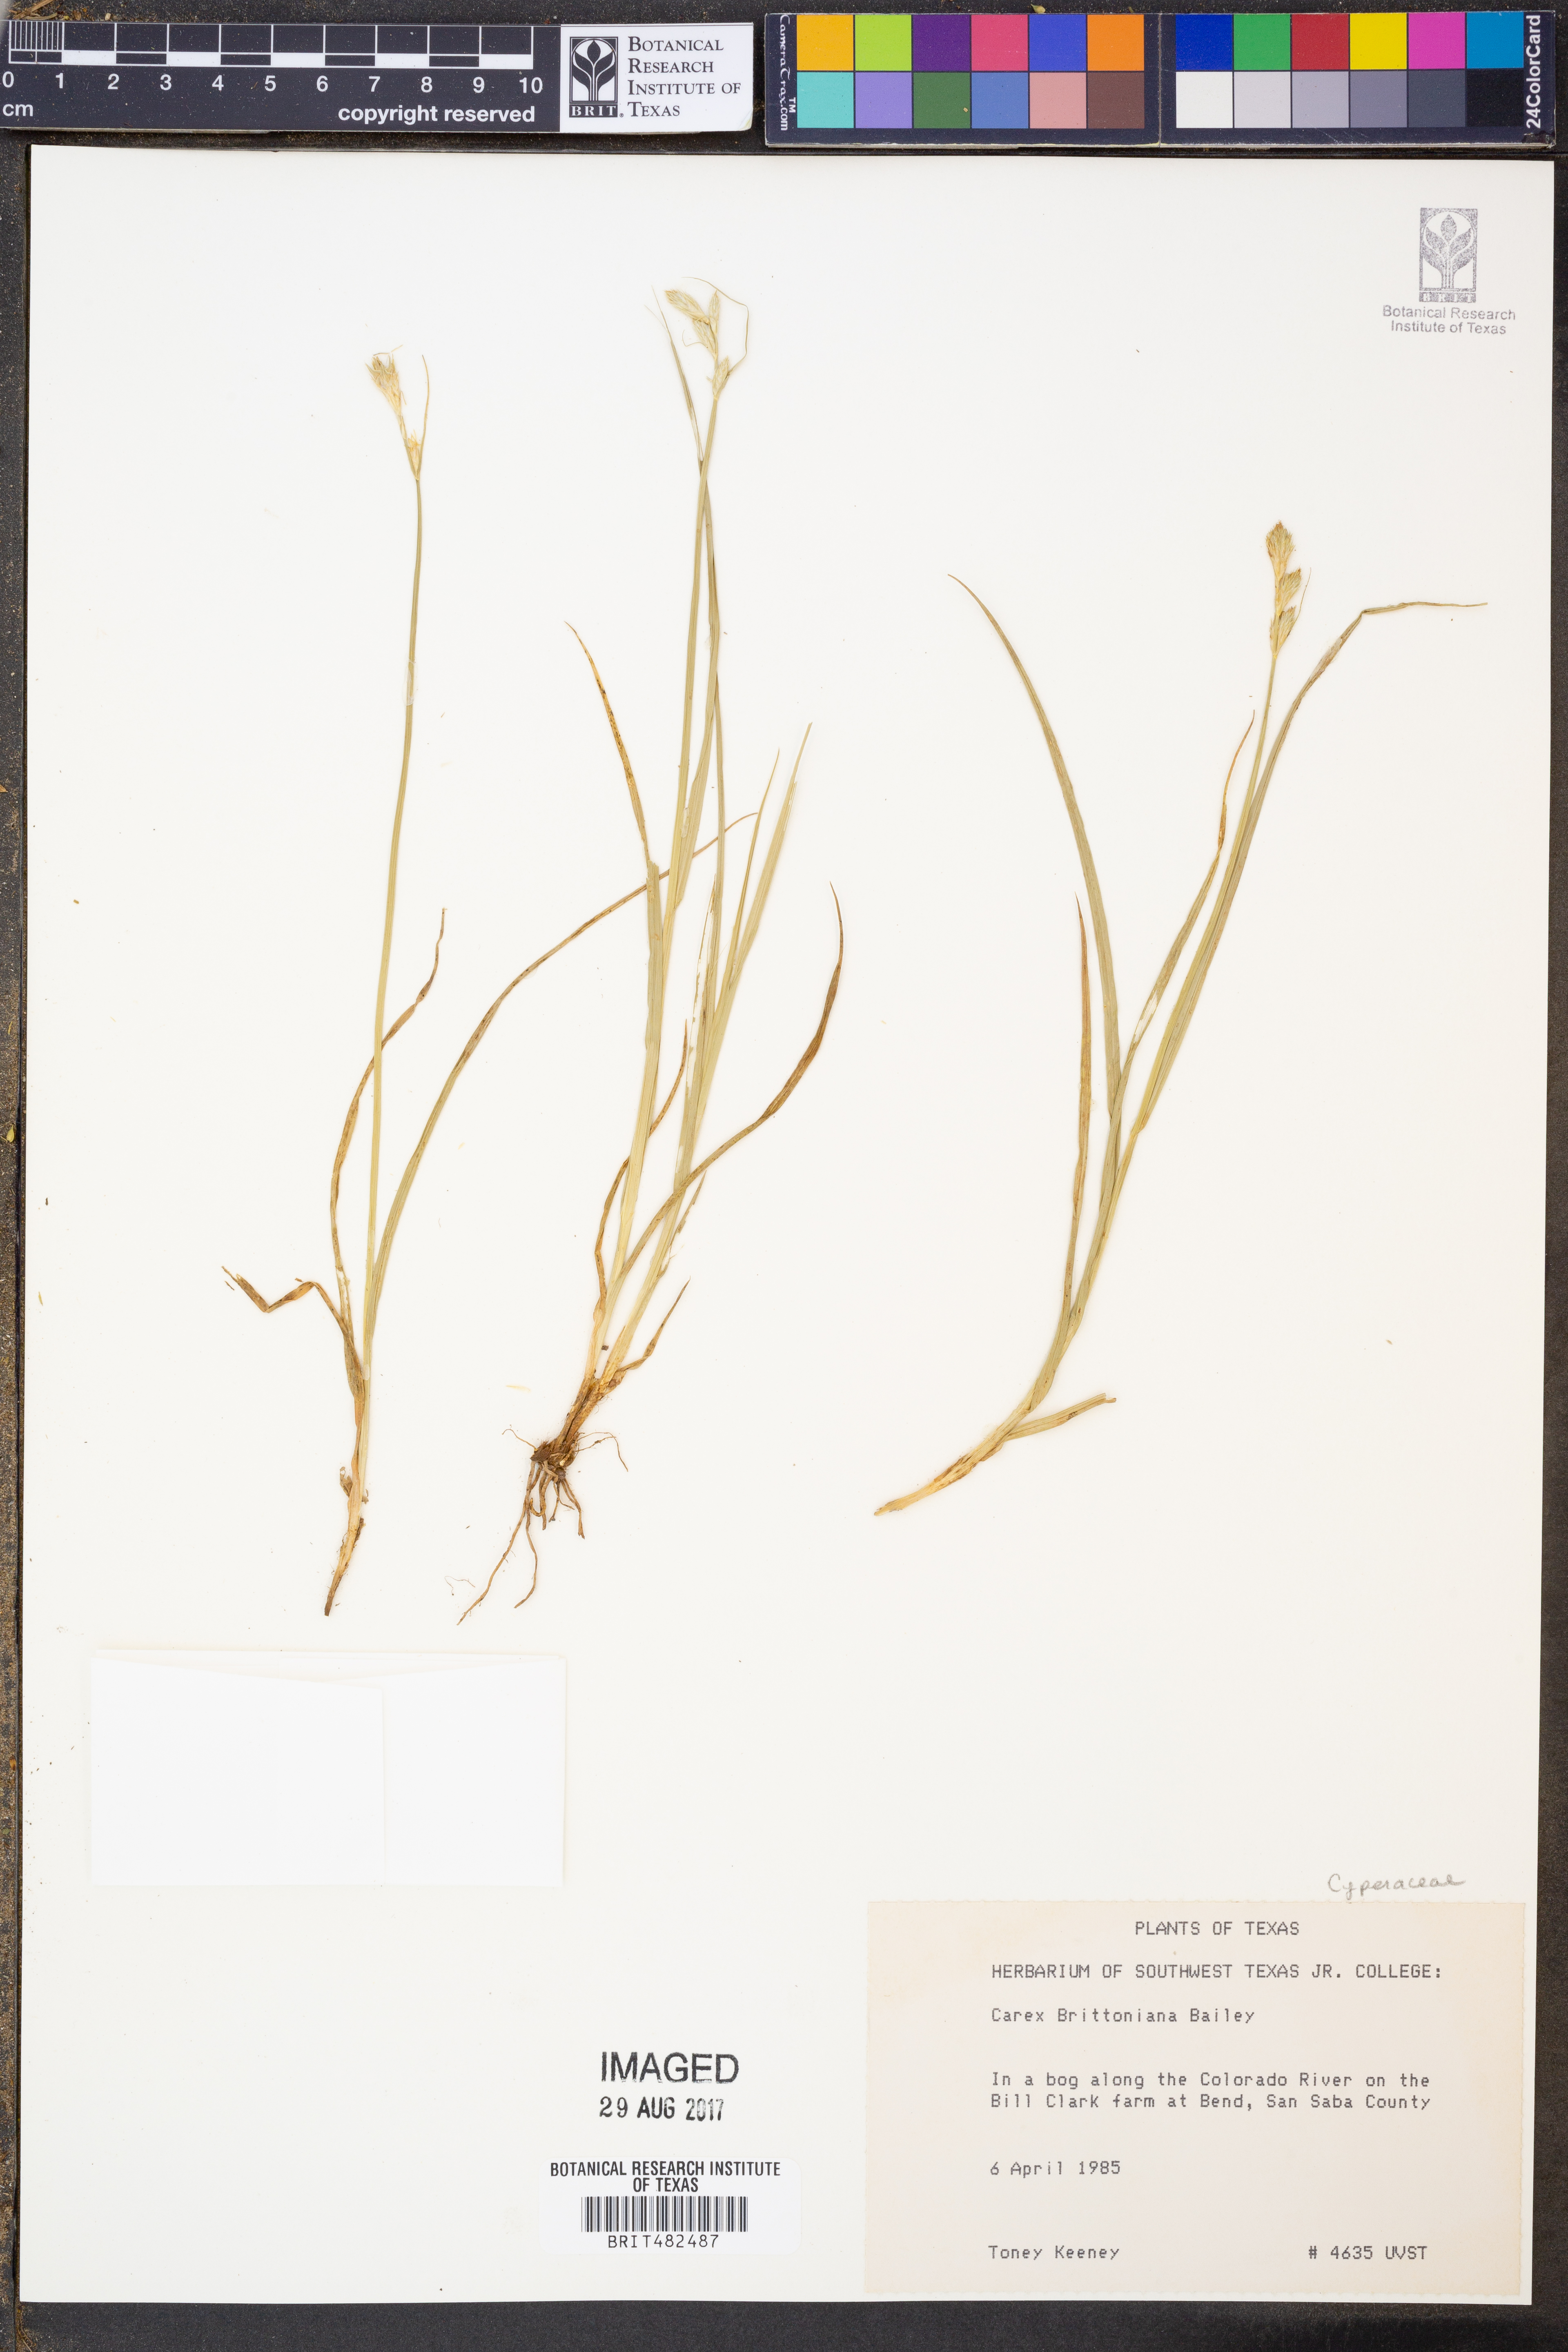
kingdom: Plantae
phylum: Tracheophyta
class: Liliopsida
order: Poales
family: Cyperaceae
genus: Carex
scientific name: Carex tetrastachya
